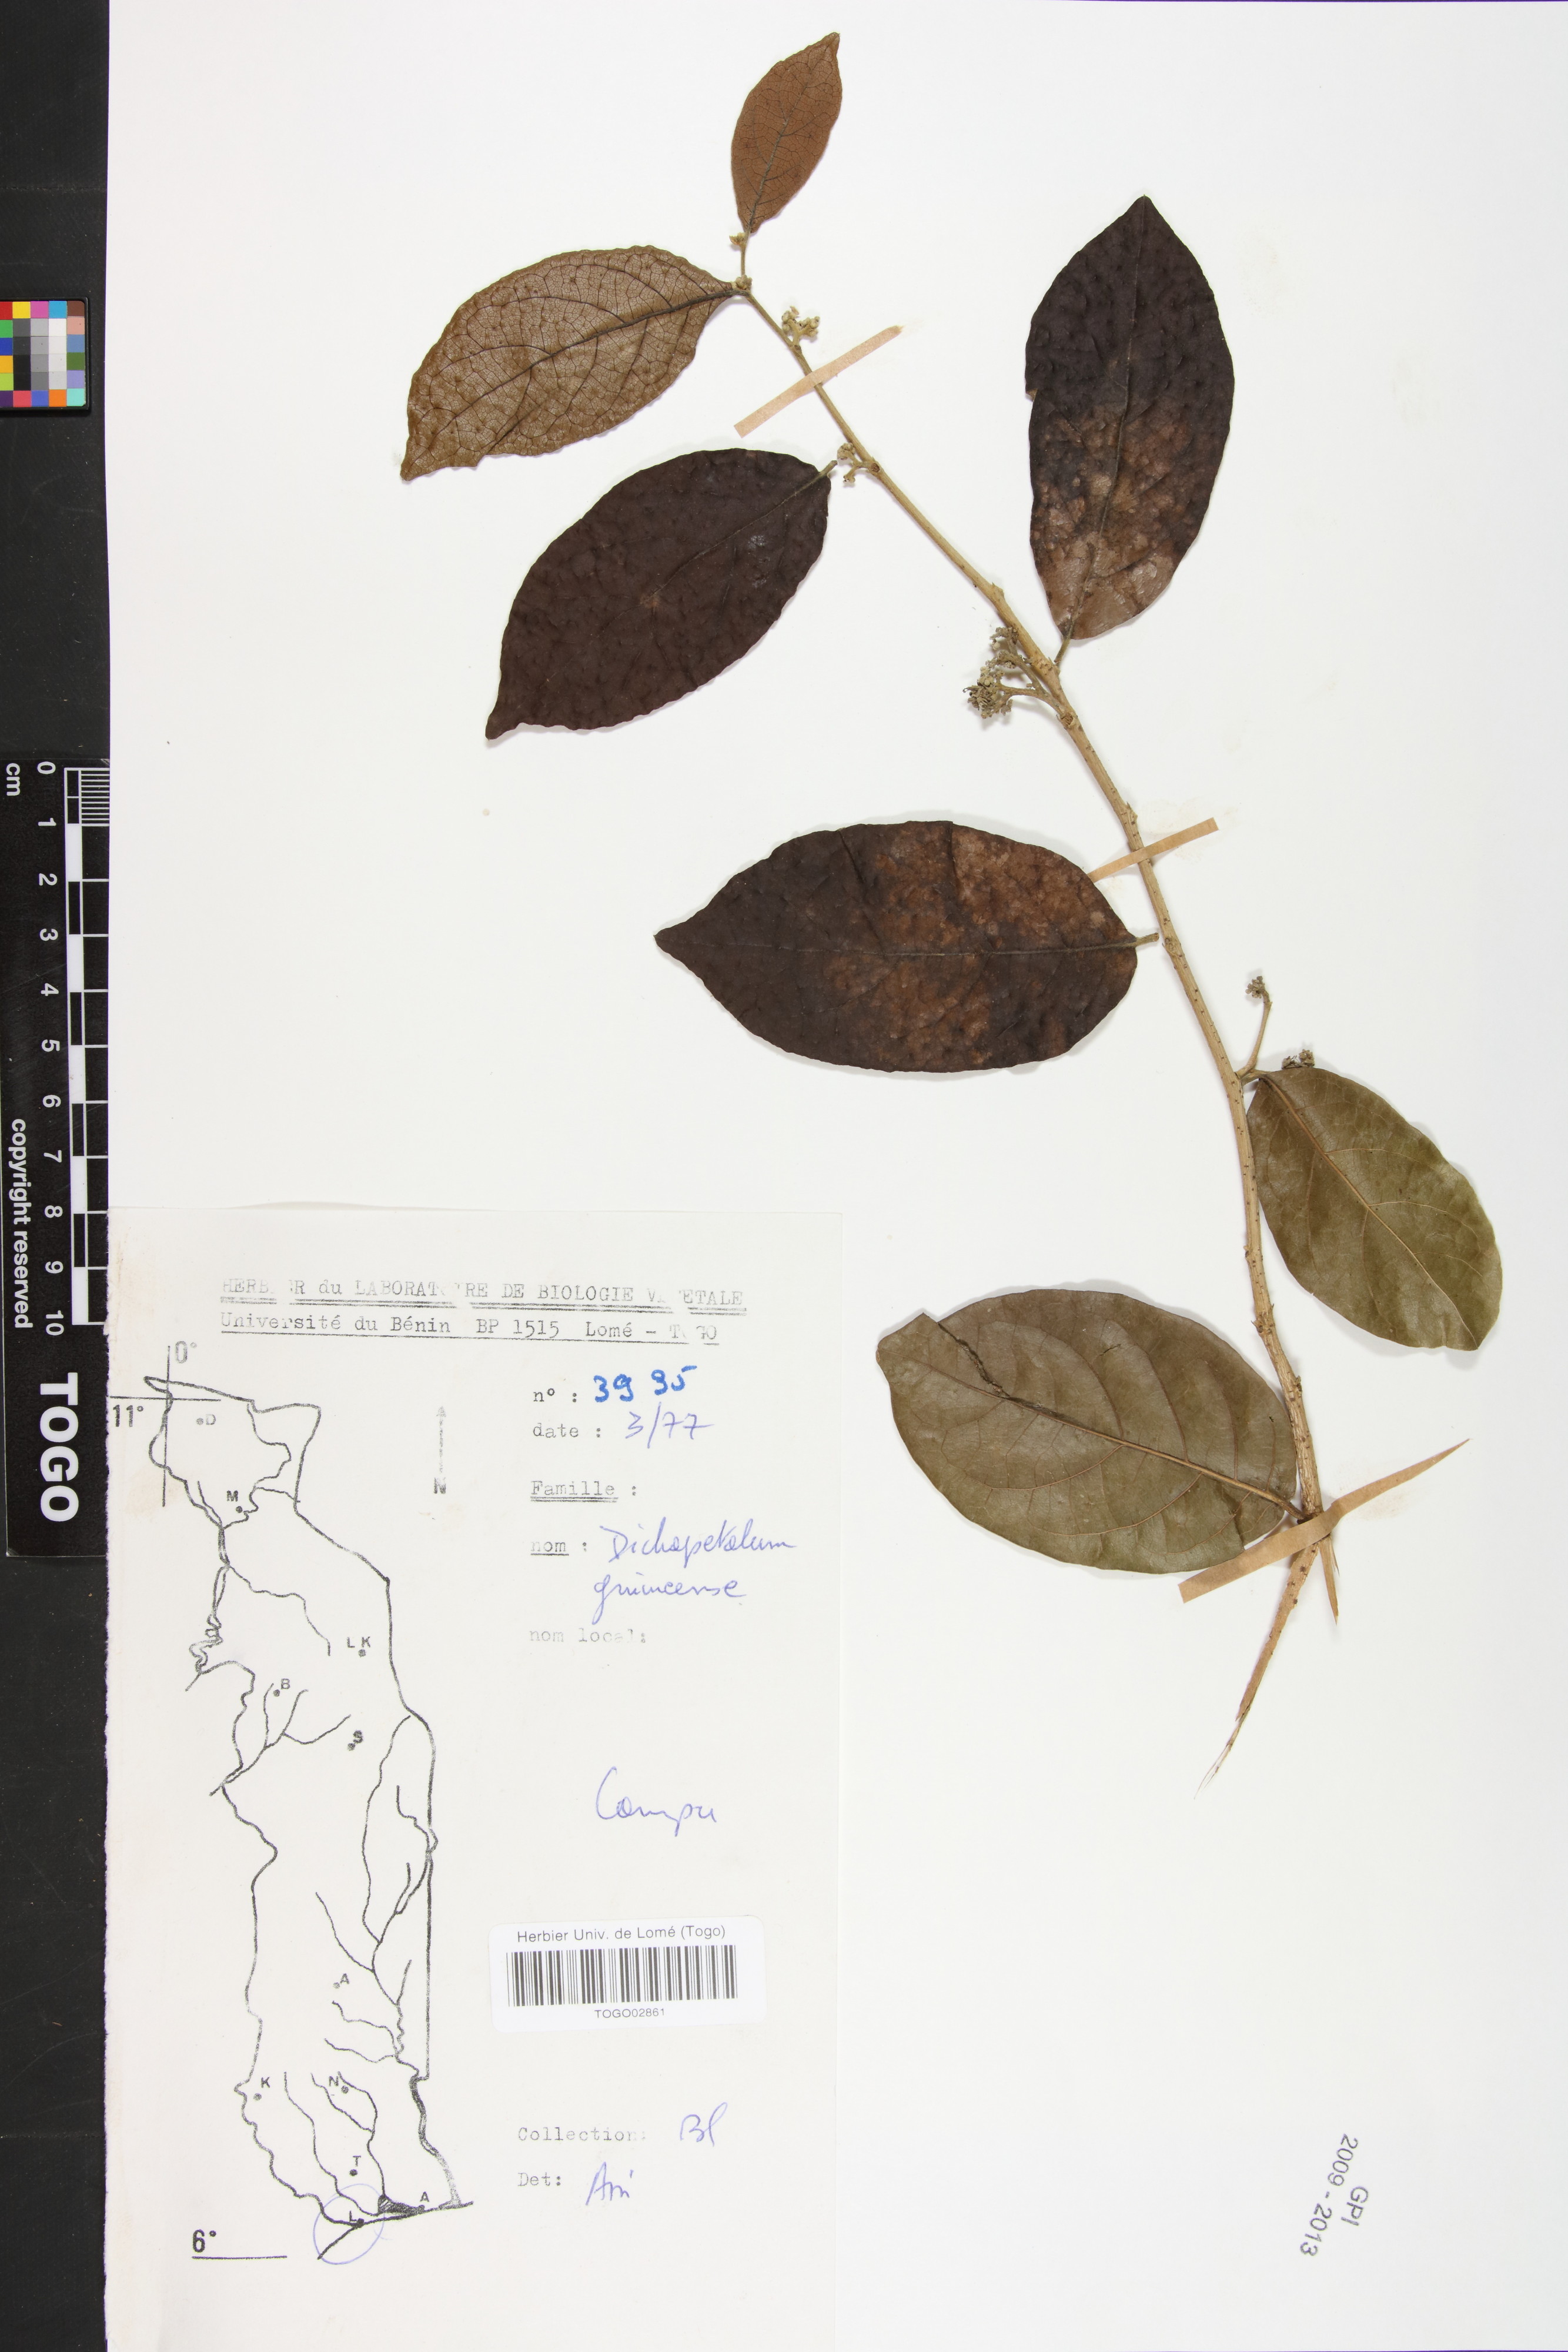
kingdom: Plantae
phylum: Tracheophyta
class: Magnoliopsida
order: Malpighiales
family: Dichapetalaceae
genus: Dichapetalum
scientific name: Dichapetalum madagascariense
